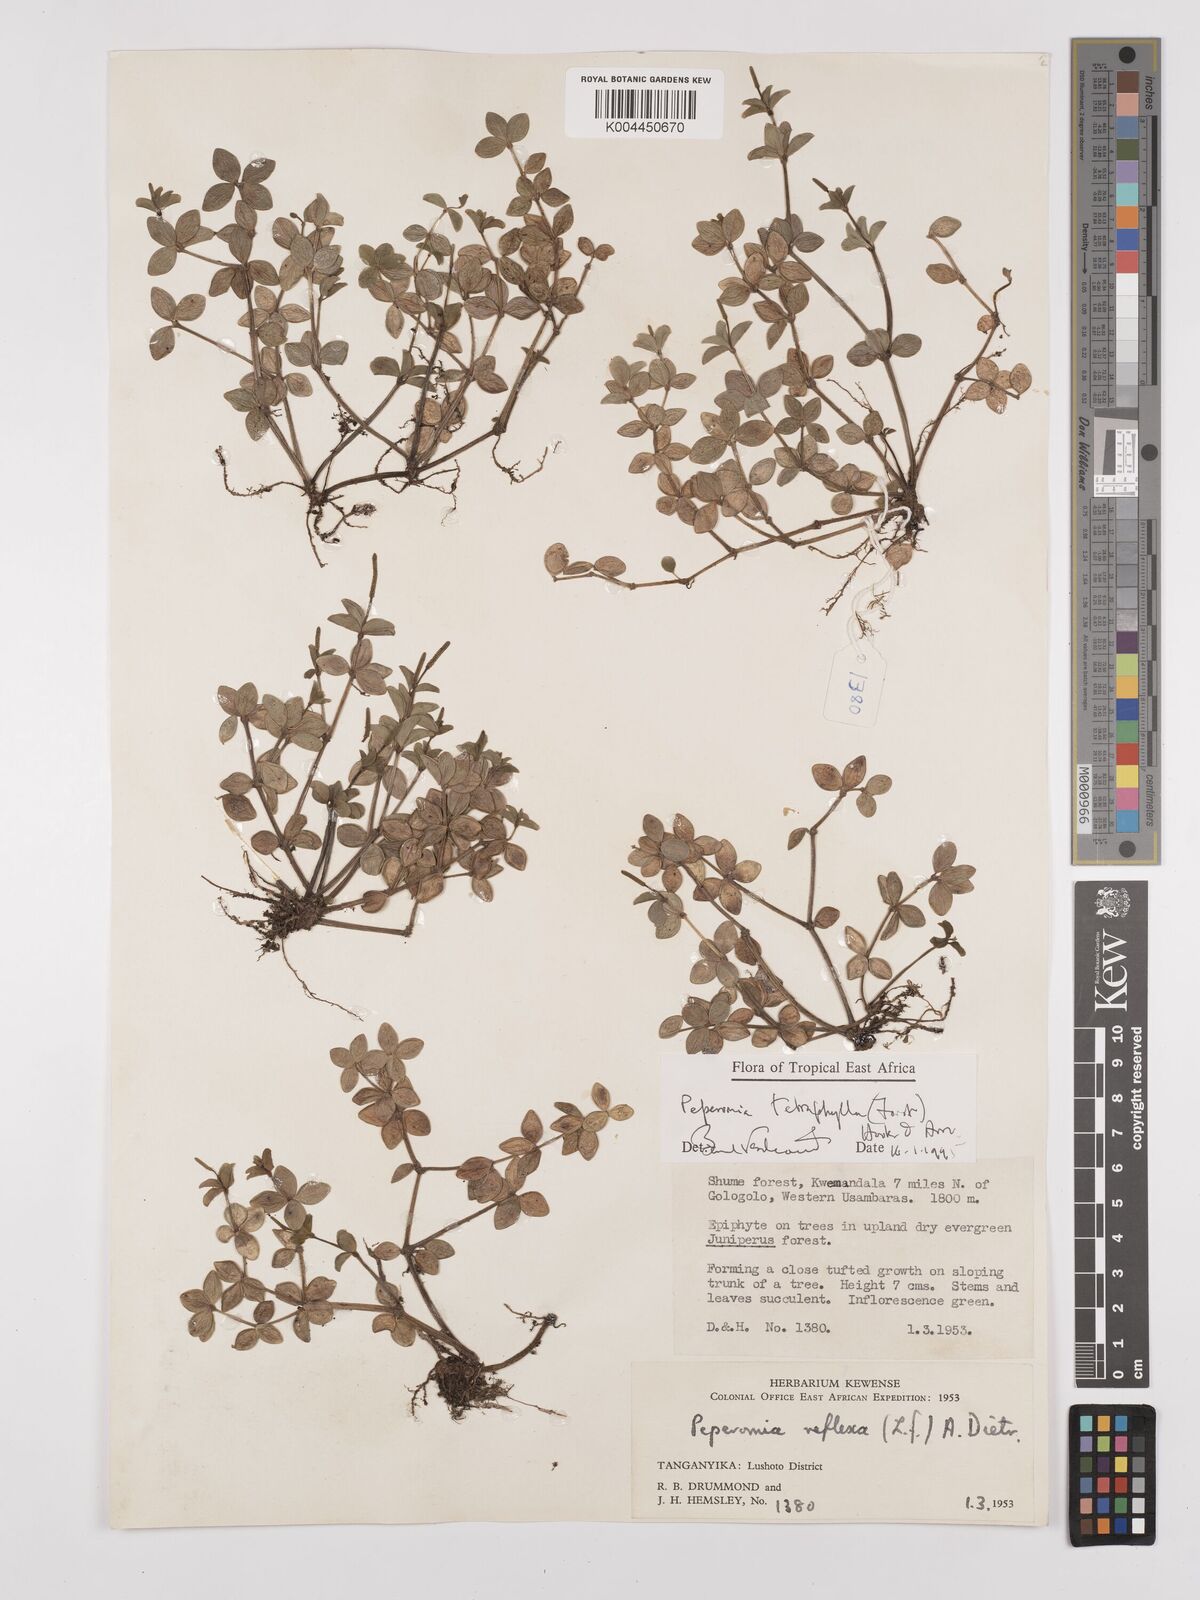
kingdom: Plantae
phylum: Tracheophyta
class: Magnoliopsida
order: Piperales
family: Piperaceae
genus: Peperomia
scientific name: Peperomia tetraphylla
